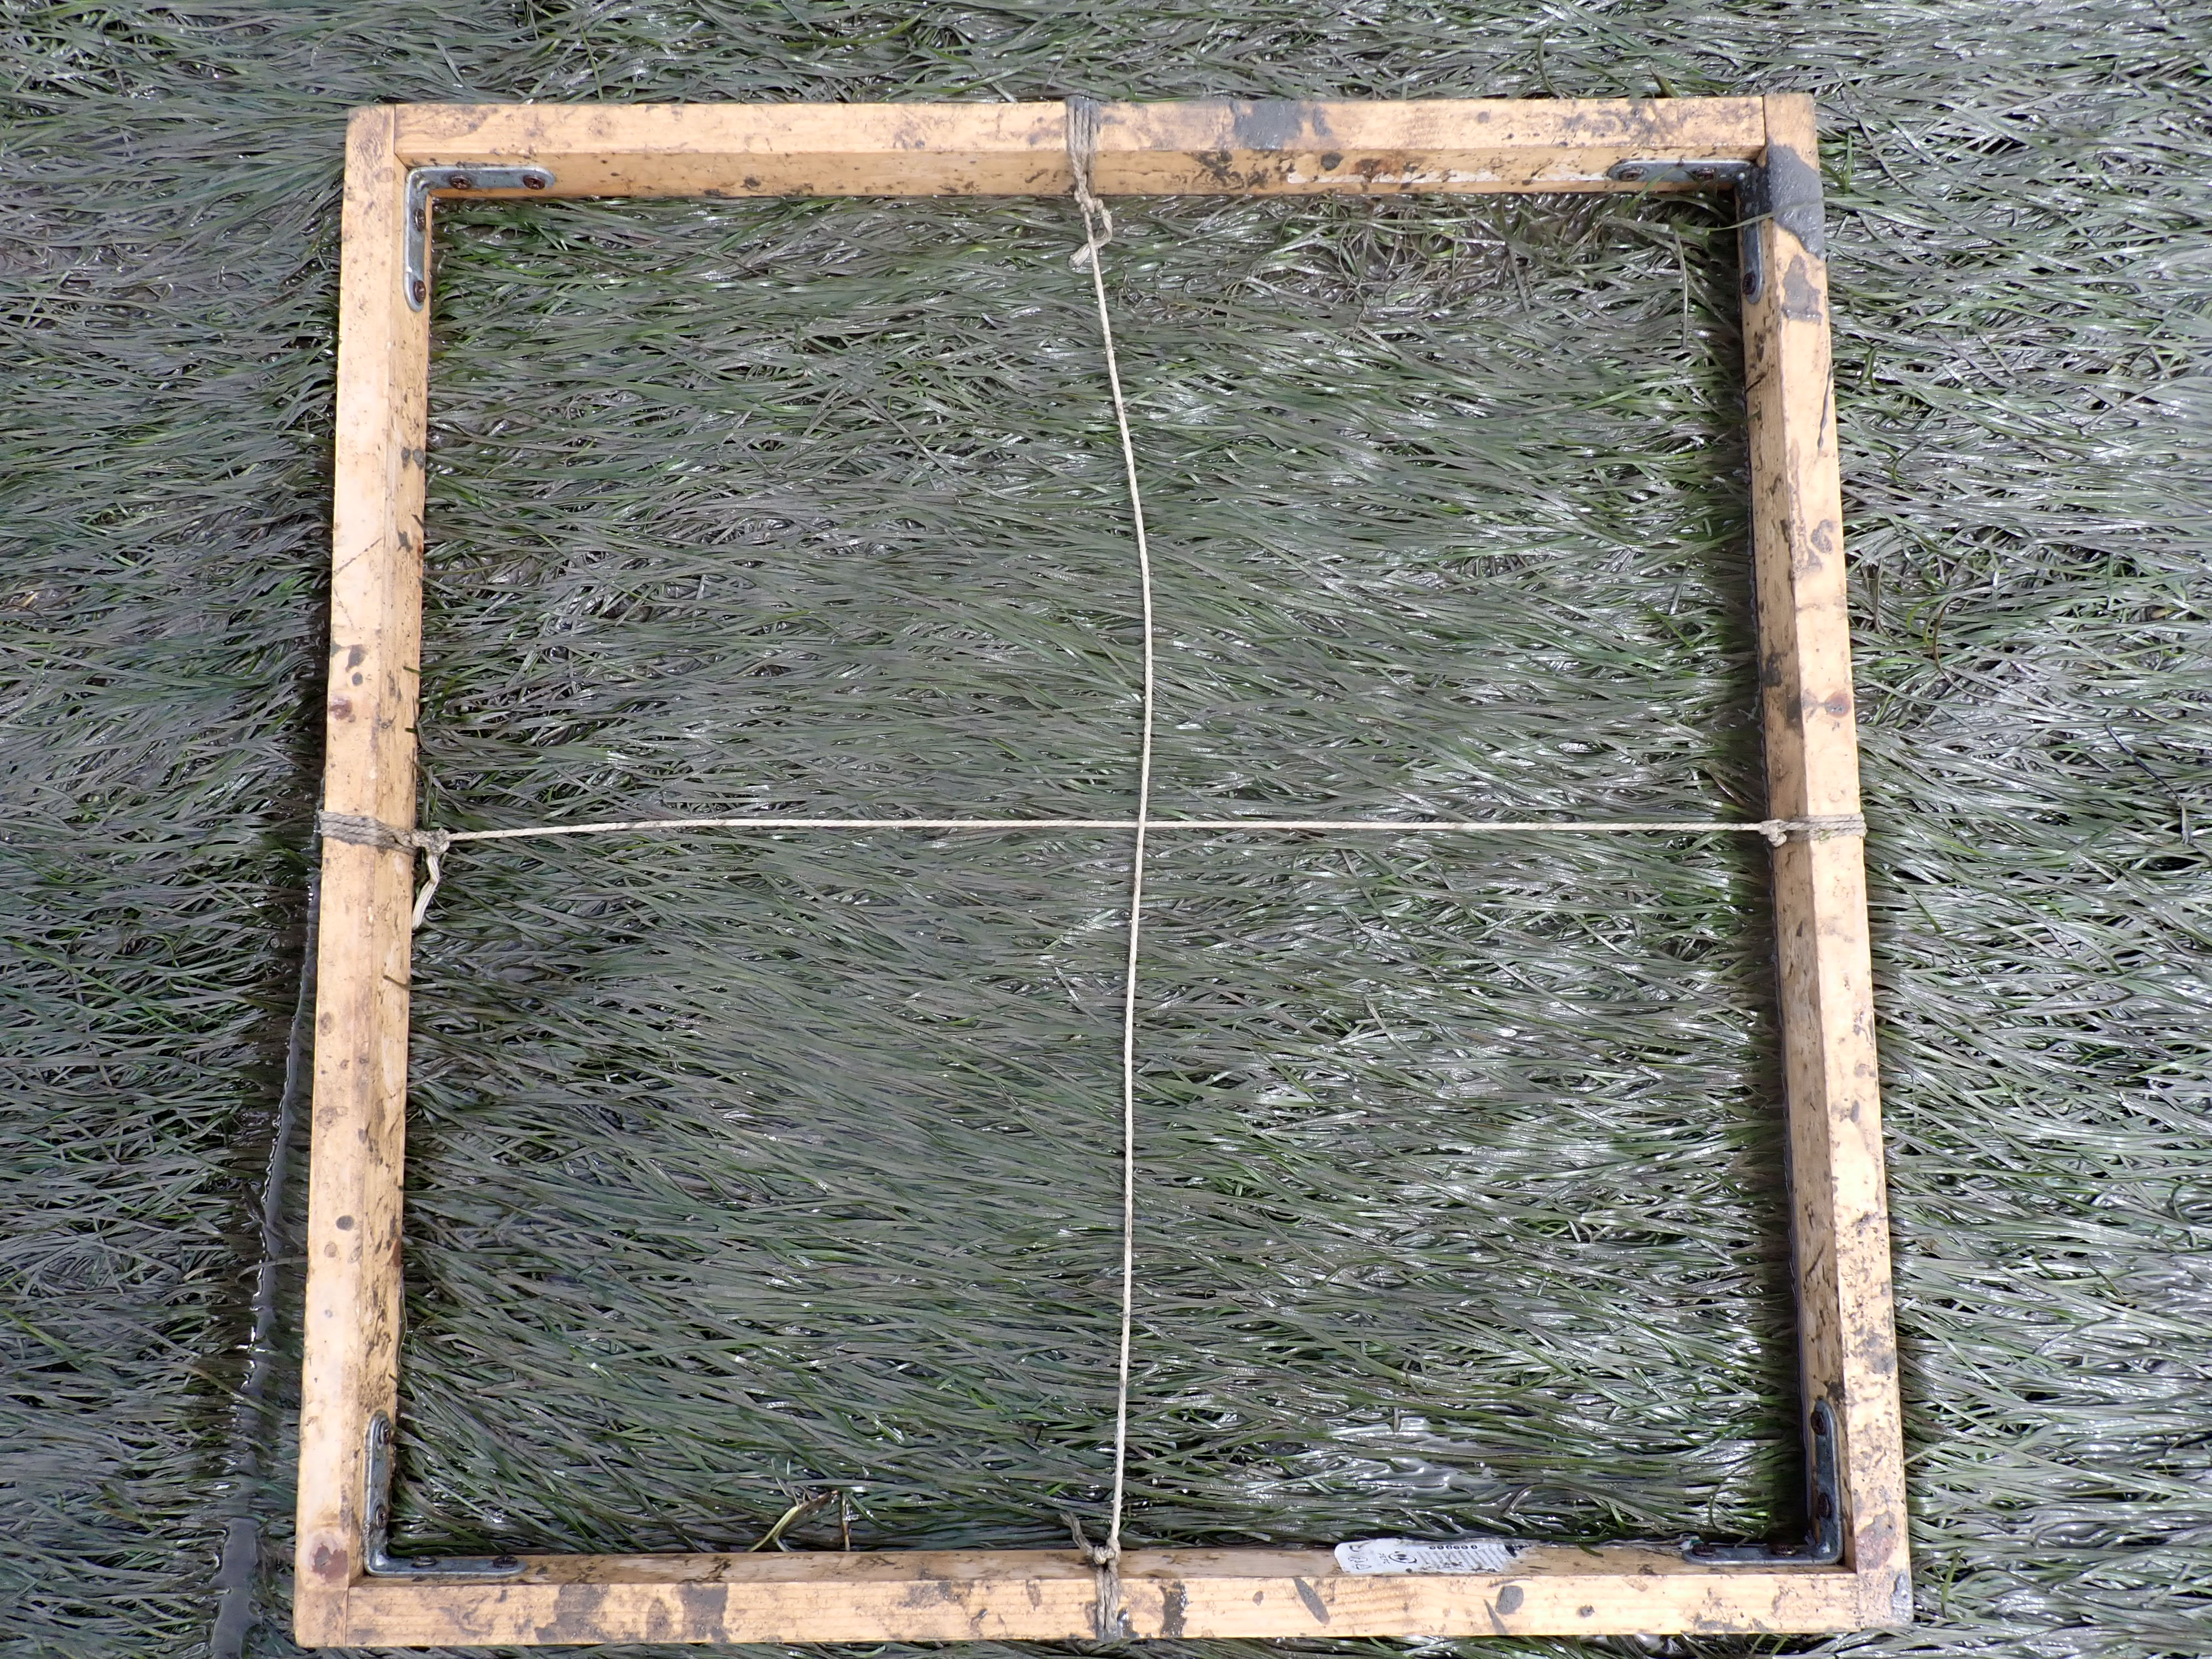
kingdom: Plantae
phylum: Tracheophyta
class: Liliopsida
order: Alismatales
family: Zosteraceae
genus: Zostera
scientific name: Zostera noltii
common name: Dwarf eelgrass
